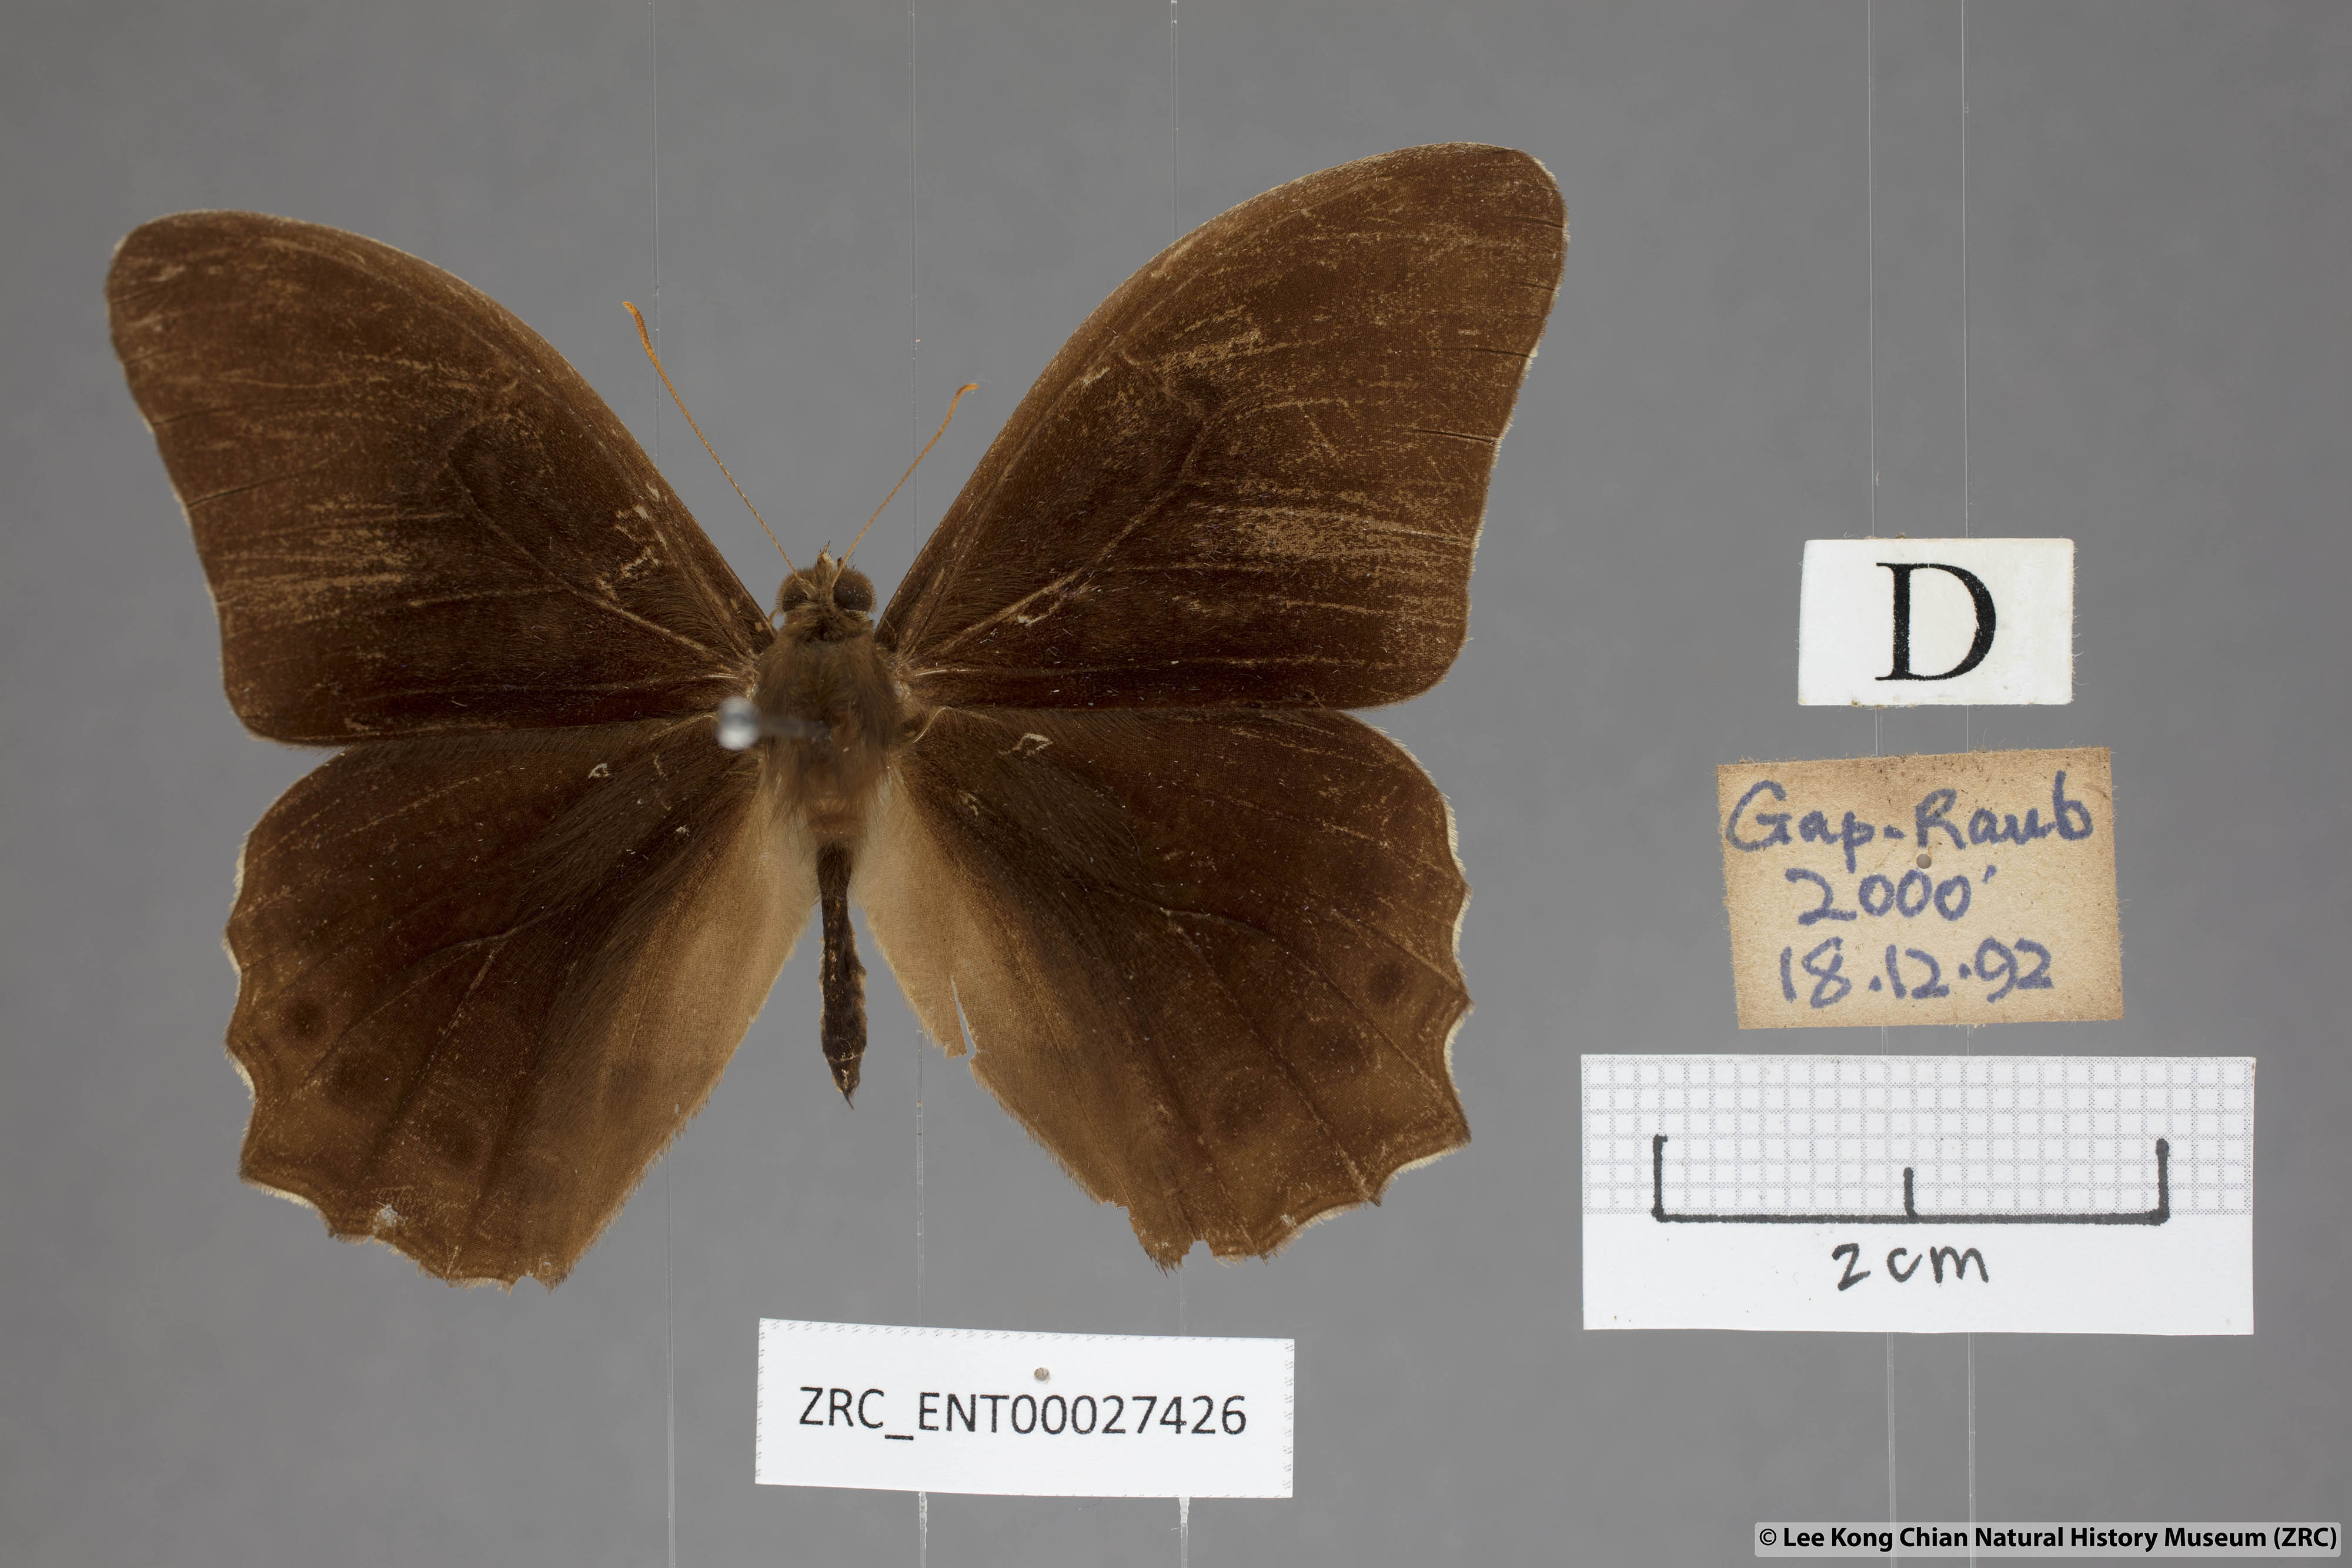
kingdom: Animalia
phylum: Arthropoda
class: Insecta
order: Lepidoptera
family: Nymphalidae
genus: Lethe
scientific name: Lethe chandica
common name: Angled red forester
